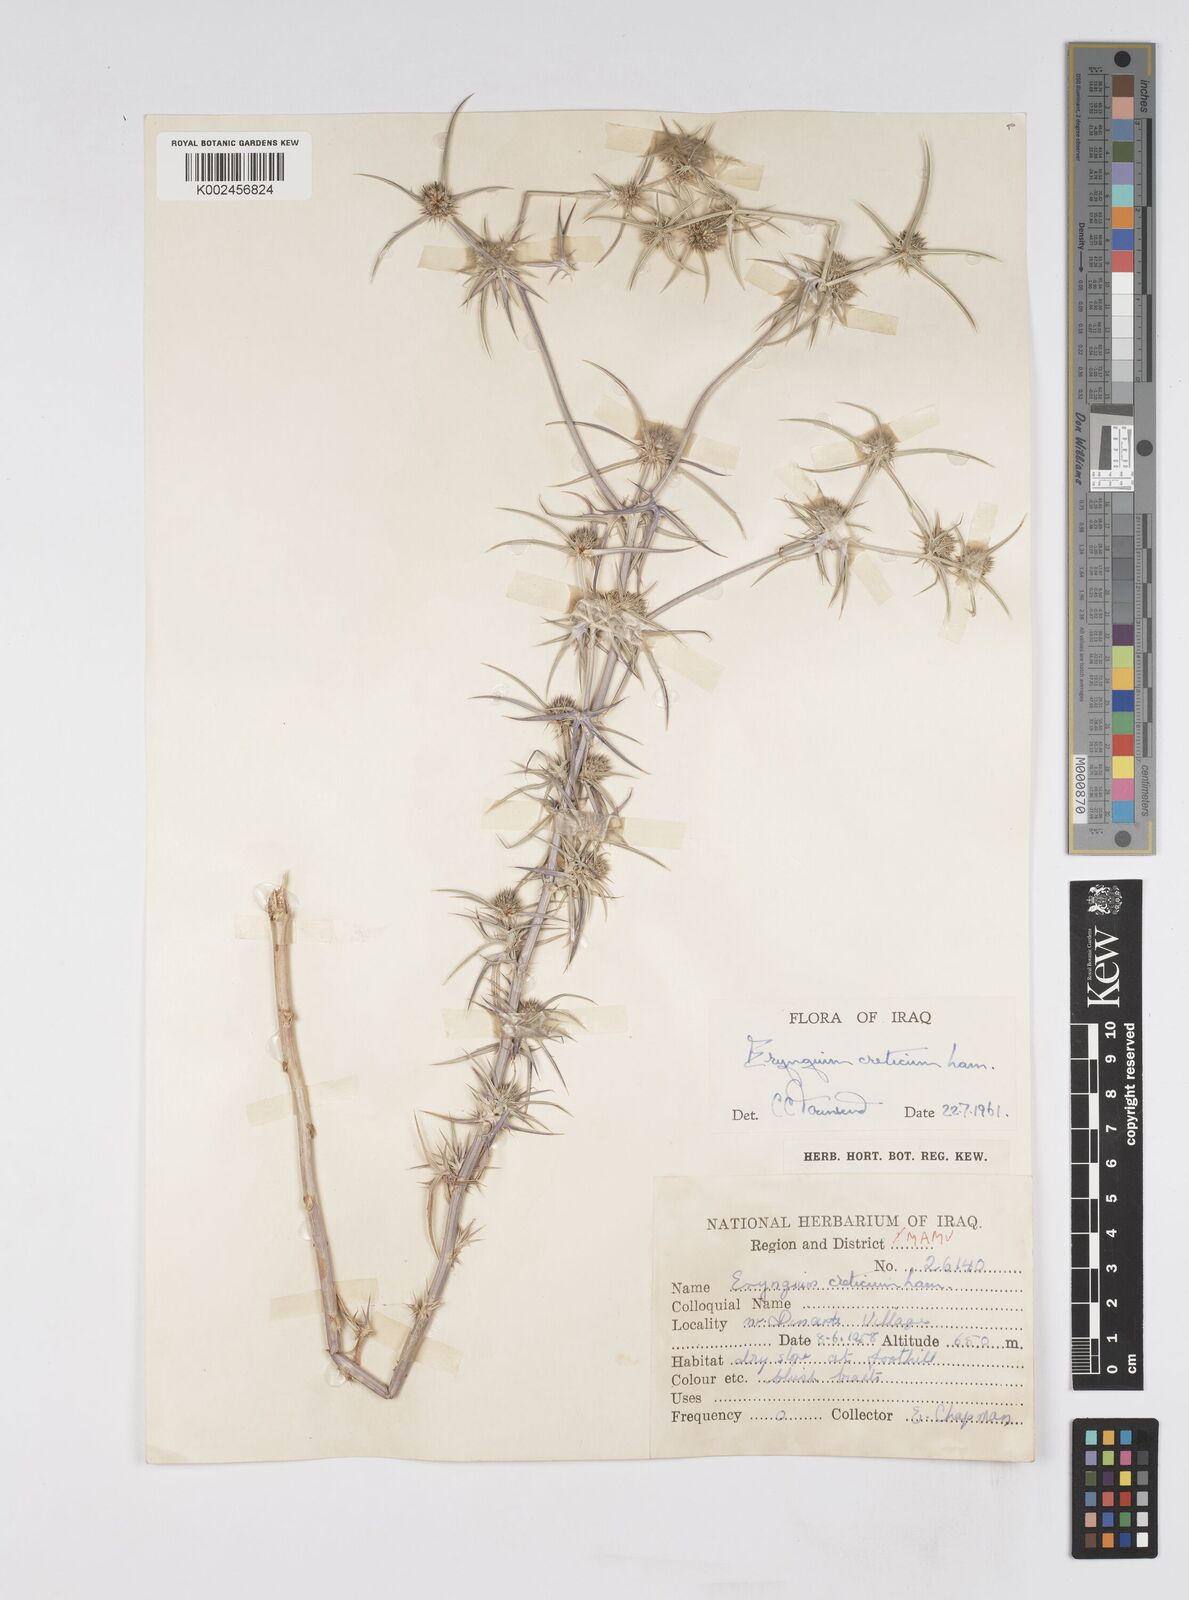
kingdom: Plantae
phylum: Tracheophyta
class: Magnoliopsida
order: Apiales
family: Apiaceae
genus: Eryngium
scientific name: Eryngium creticum
